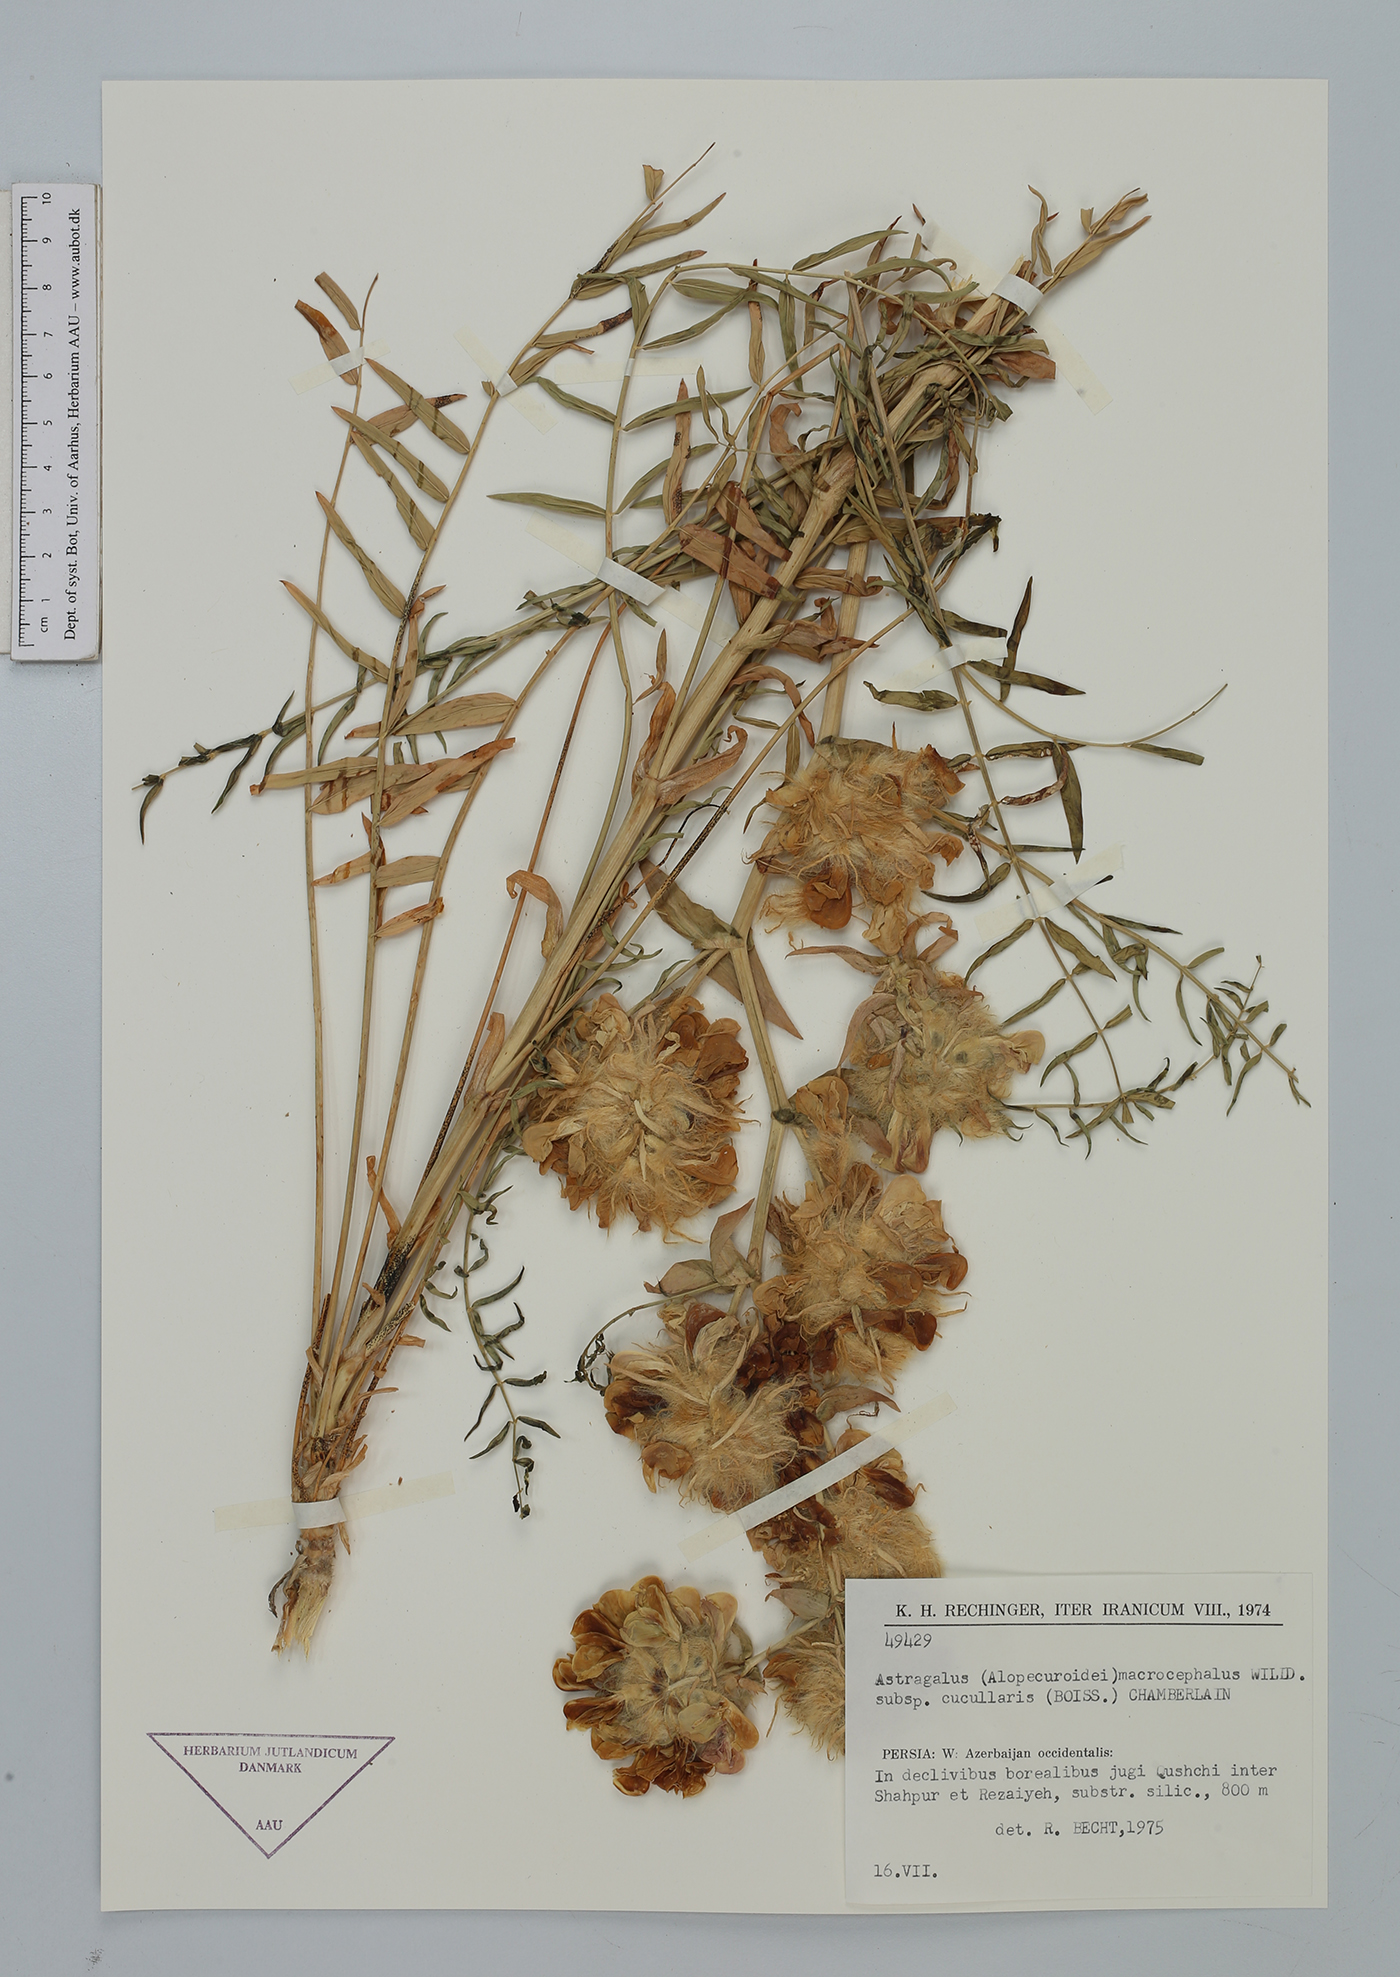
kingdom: Plantae
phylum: Tracheophyta
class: Magnoliopsida
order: Fabales
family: Fabaceae
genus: Astragalus
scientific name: Astragalus macrocephalus
